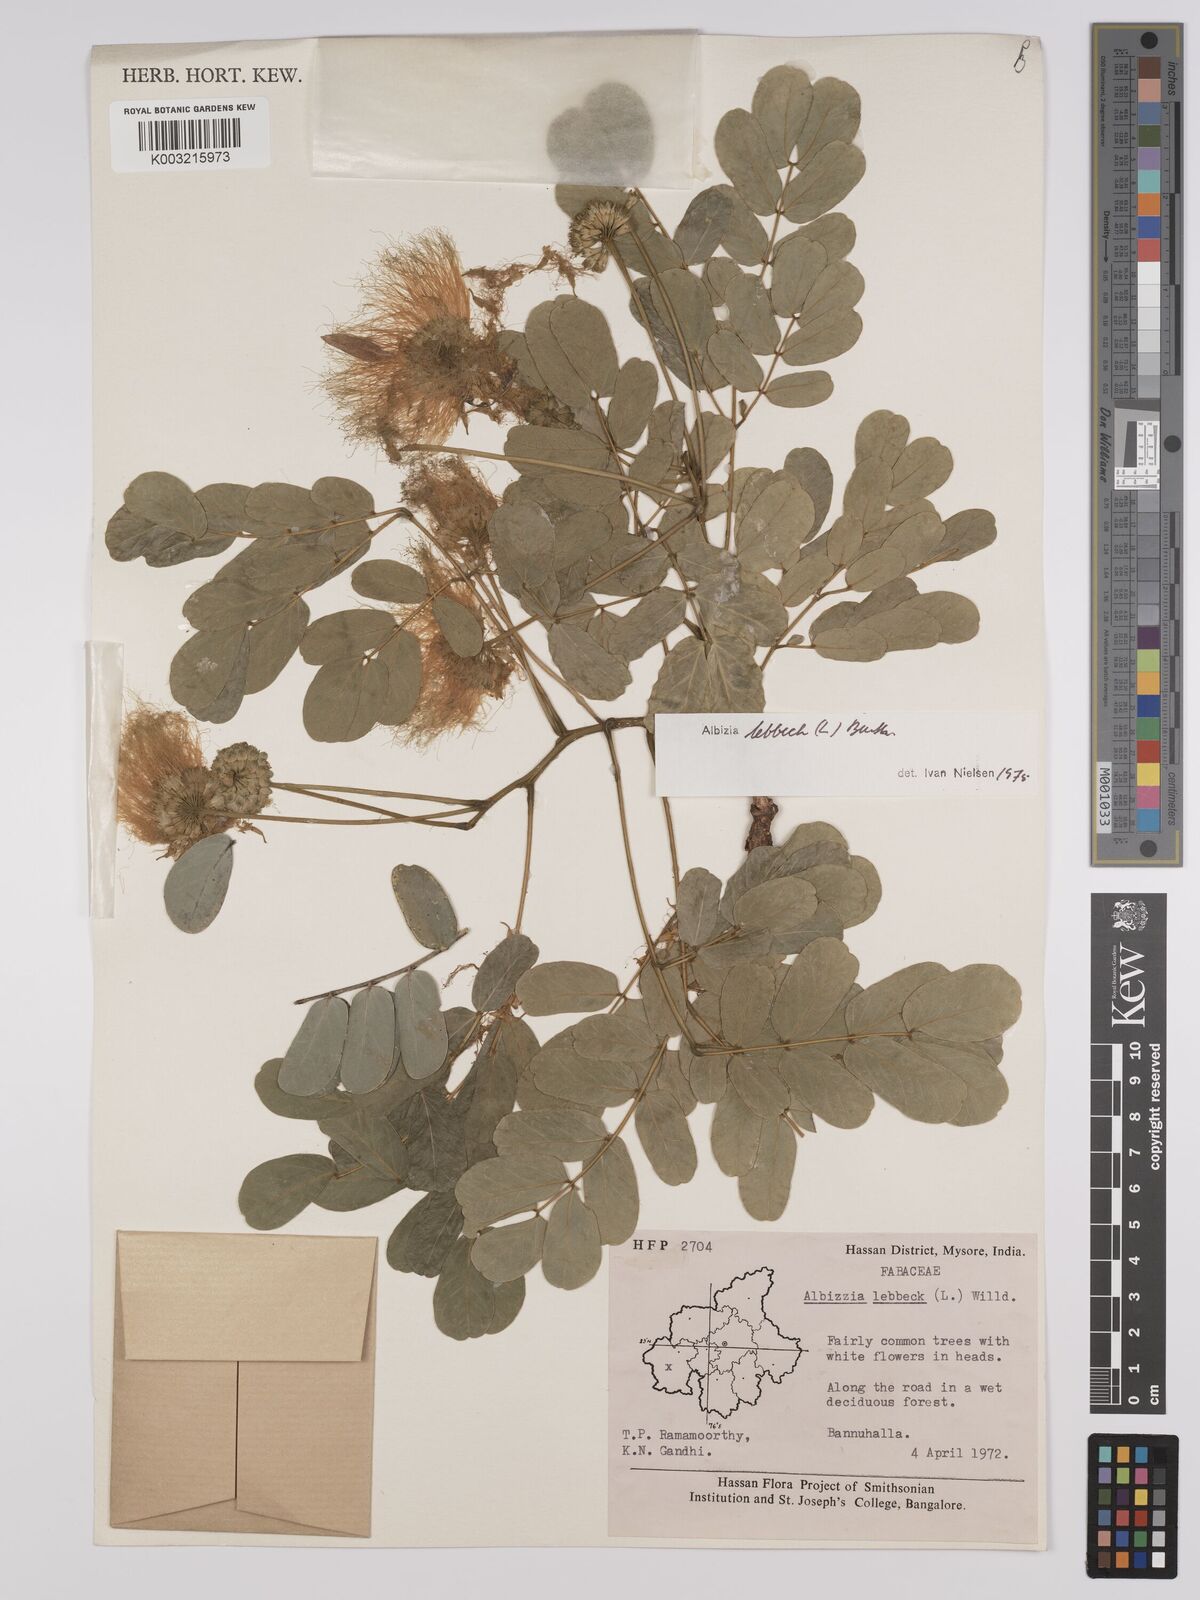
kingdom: Plantae
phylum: Tracheophyta
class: Magnoliopsida
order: Fabales
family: Fabaceae
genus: Albizia
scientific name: Albizia lebbeck
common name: Woman's tongue
